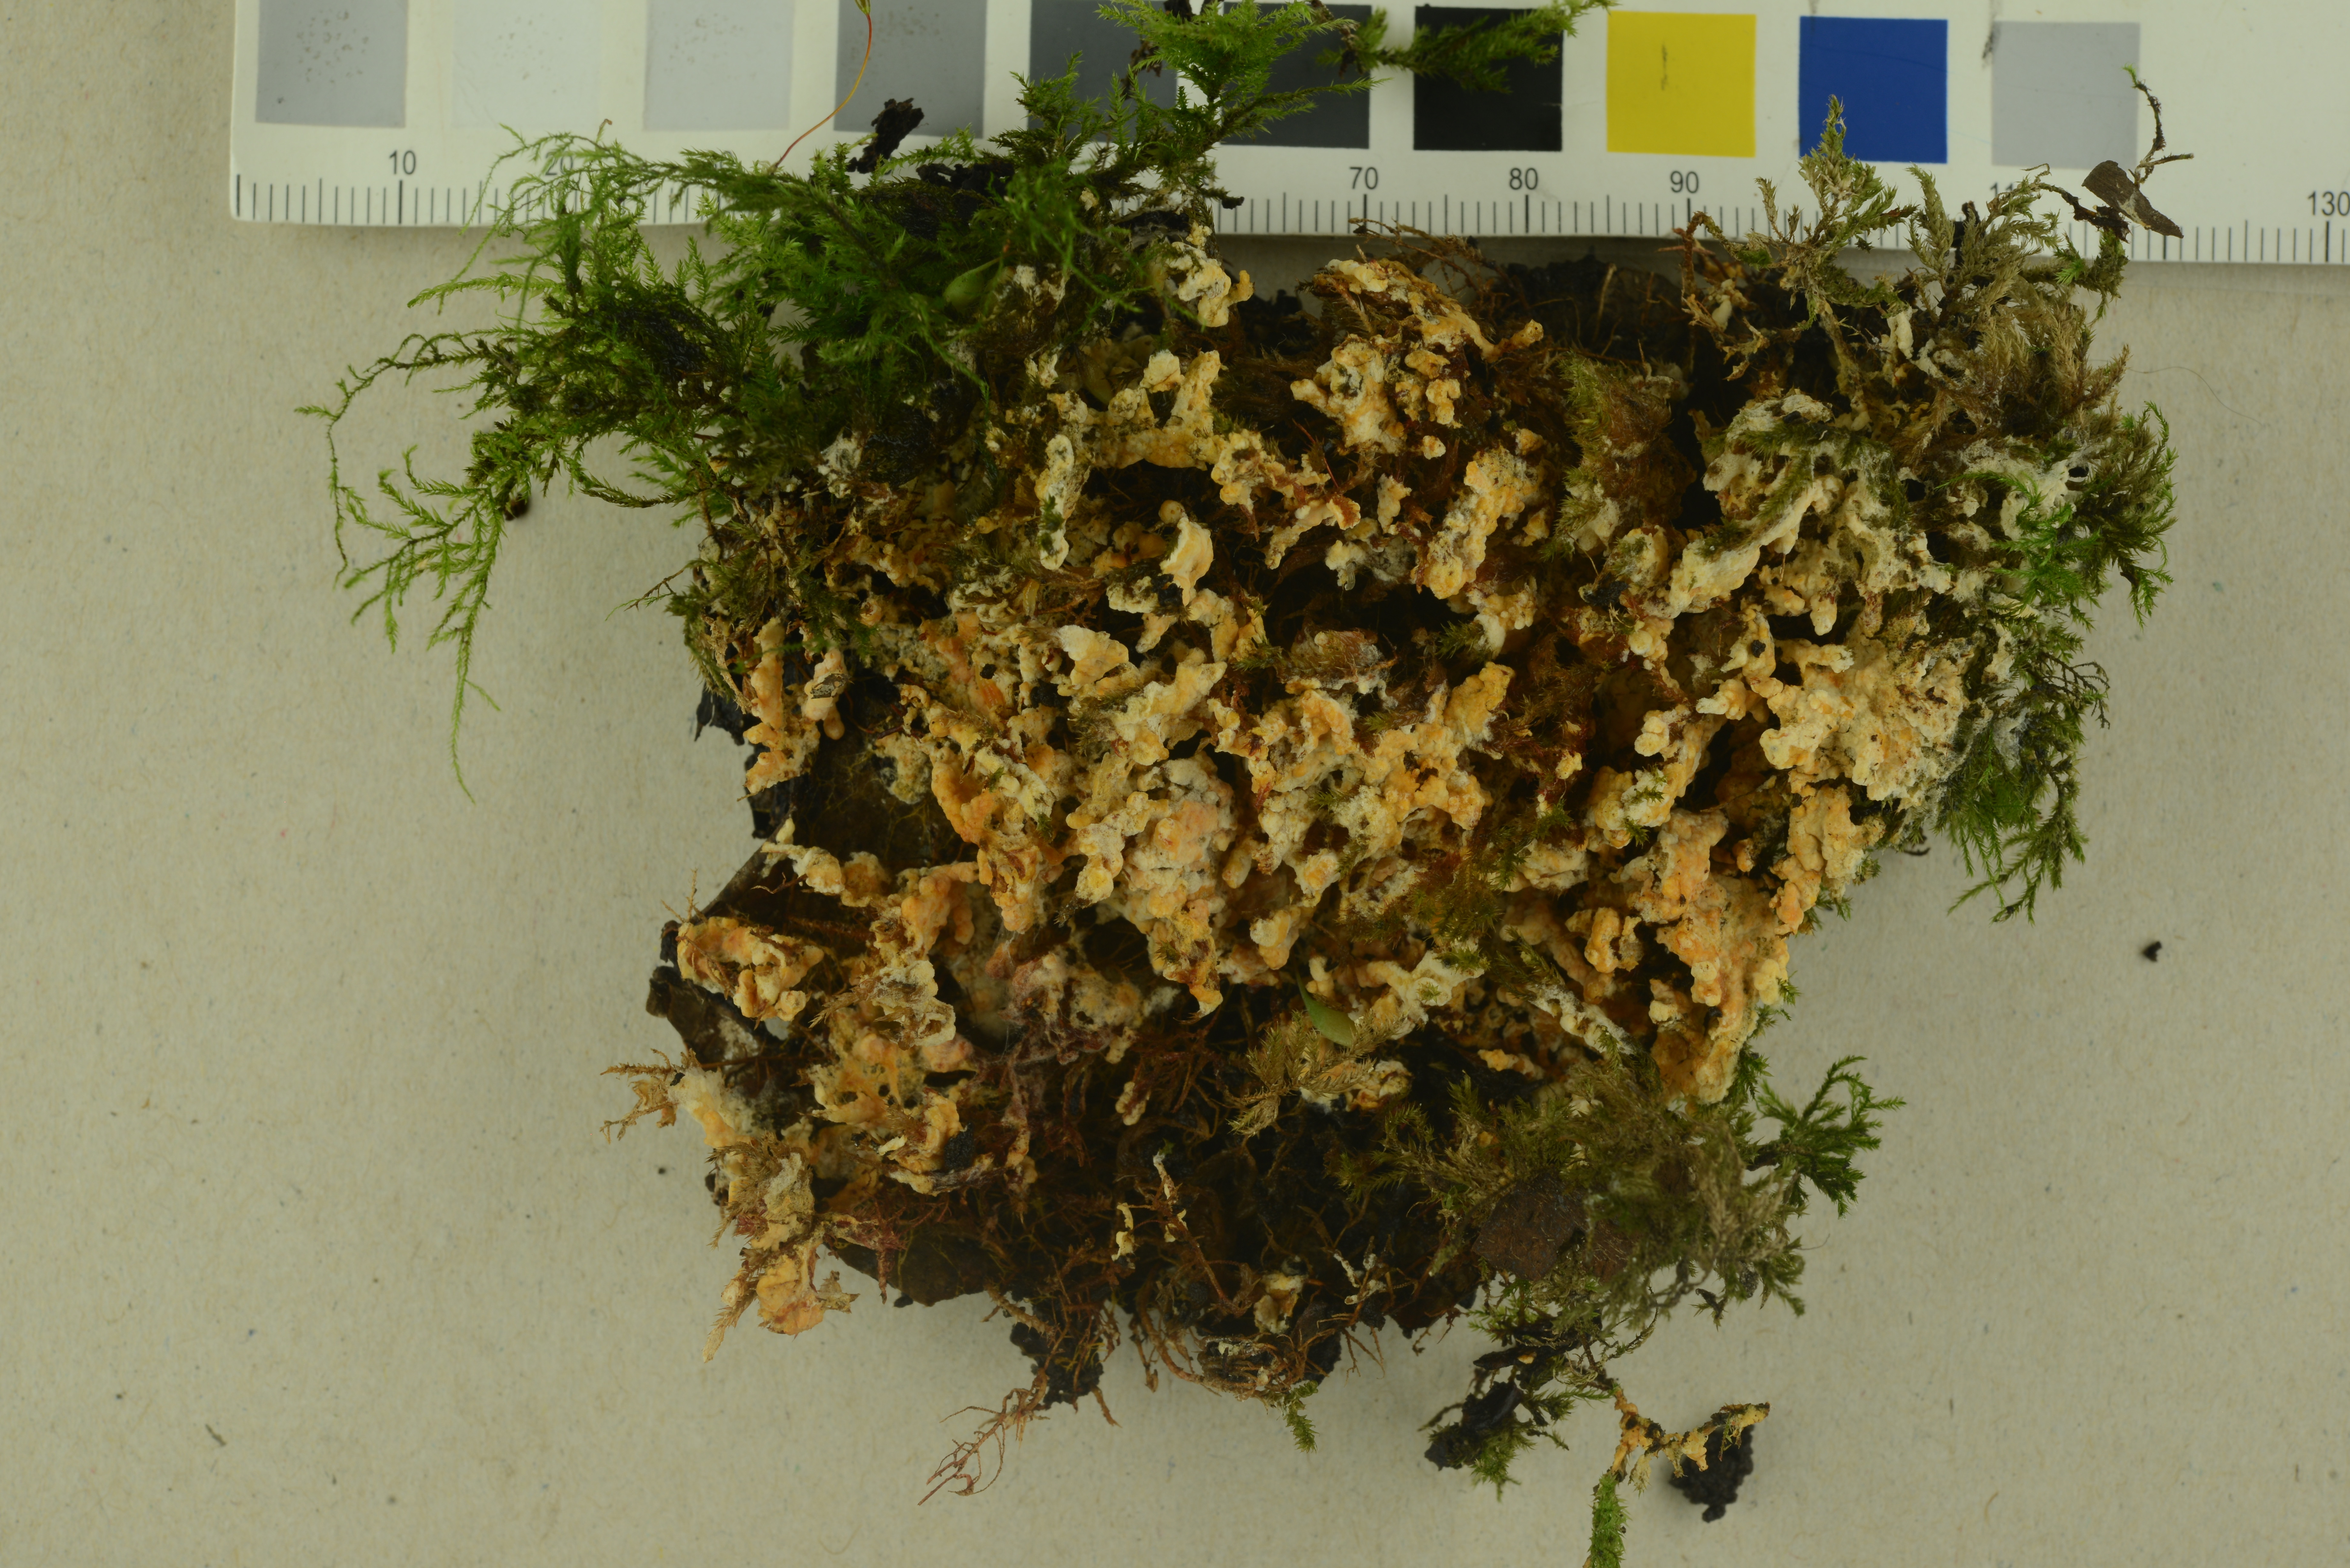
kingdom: Fungi
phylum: Basidiomycota
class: Agaricomycetes
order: Agaricales
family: Stephanosporaceae
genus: Lindtneria
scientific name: Lindtneria panphyliensis
